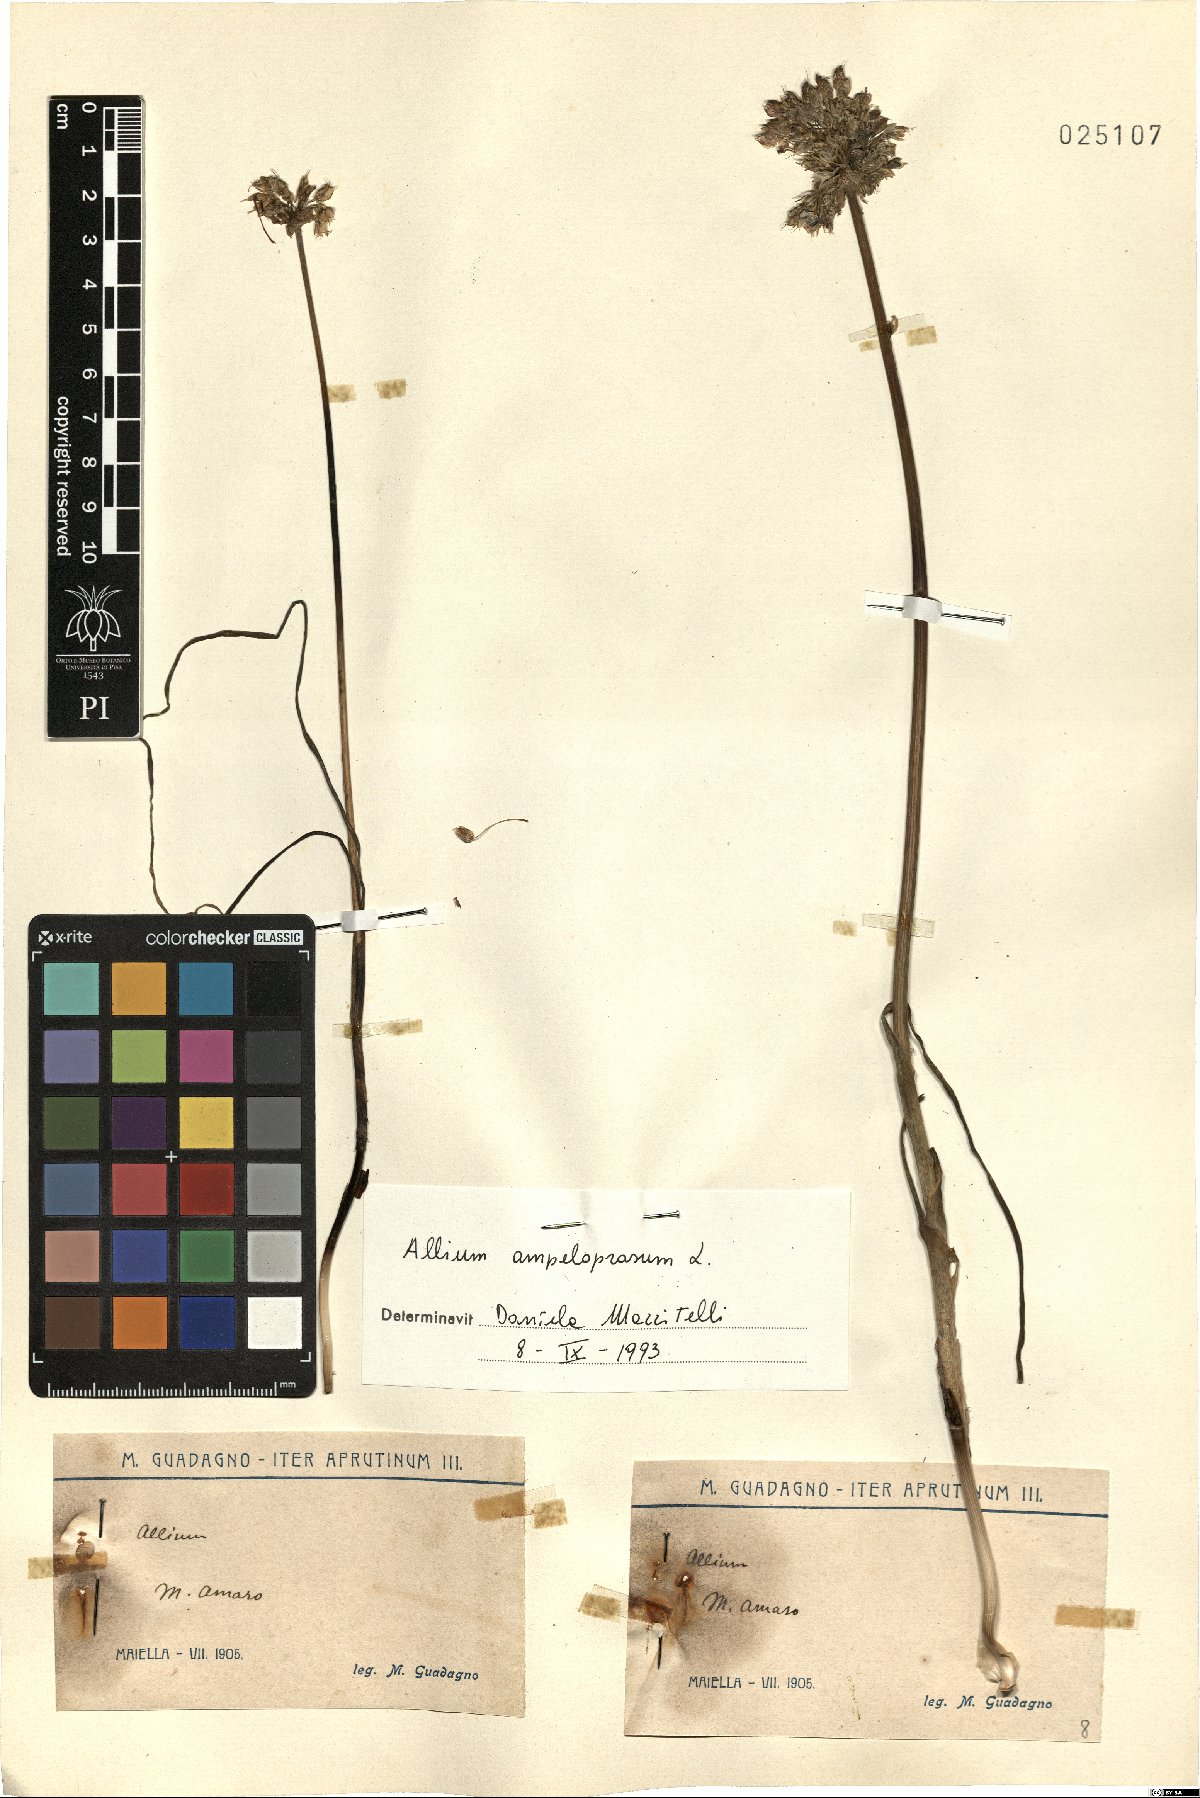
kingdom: Plantae
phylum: Tracheophyta
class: Liliopsida
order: Asparagales
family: Amaryllidaceae
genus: Allium
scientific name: Allium ampeloprasum
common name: Wild leek
